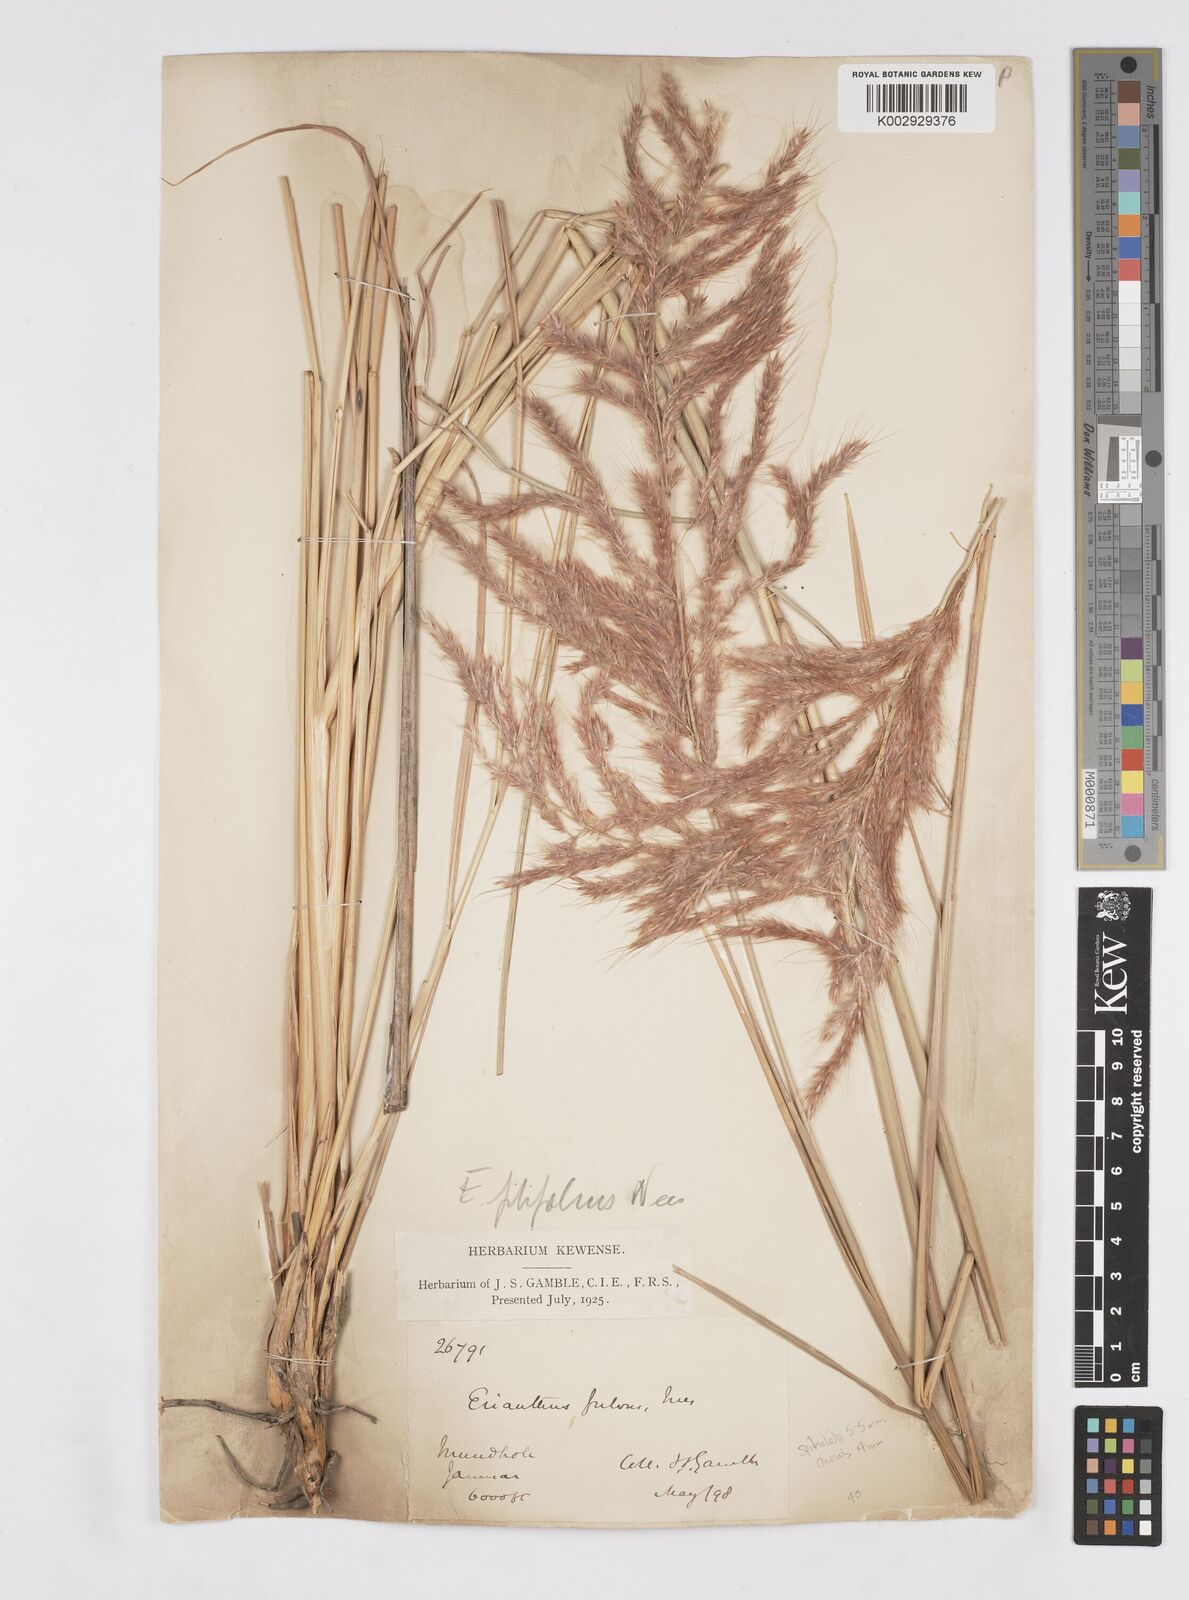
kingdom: Plantae
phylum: Tracheophyta
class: Liliopsida
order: Poales
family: Poaceae
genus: Saccharum
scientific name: Saccharum filifolium
